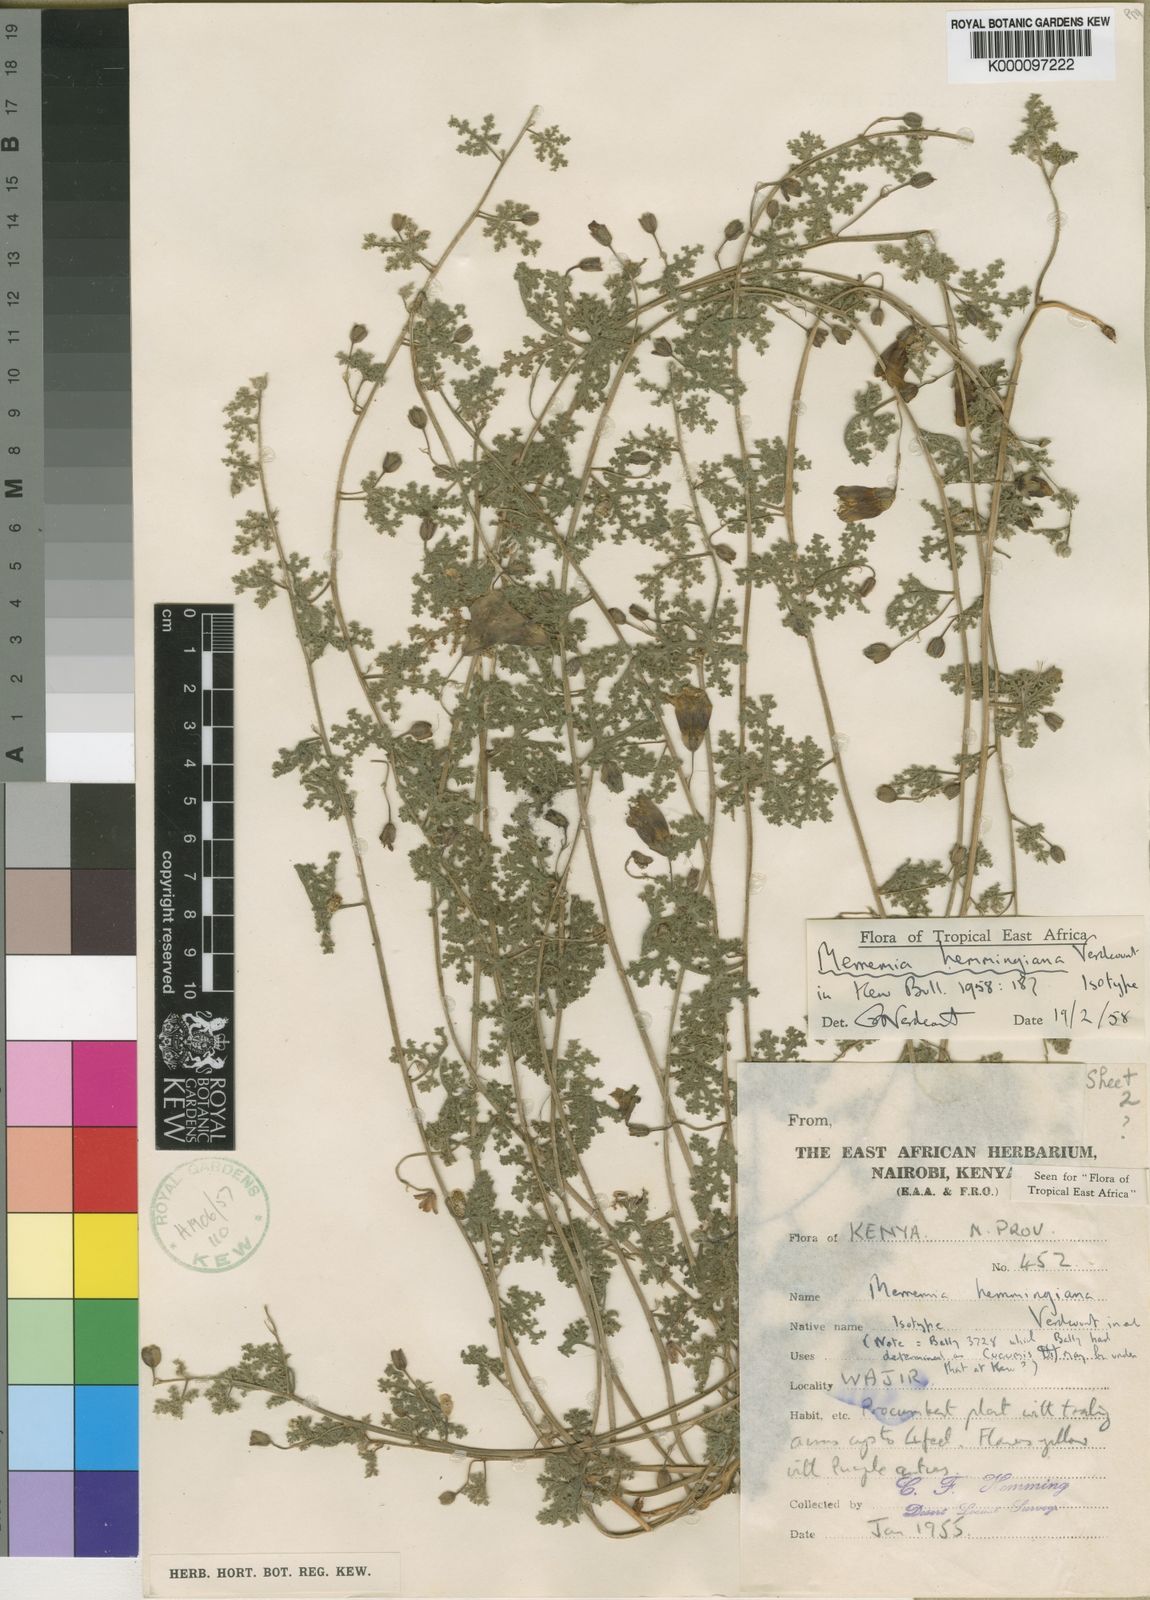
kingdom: Plantae
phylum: Tracheophyta
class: Magnoliopsida
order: Solanales
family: Convolvulaceae
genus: Merremia
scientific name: Merremia hemmingiana
